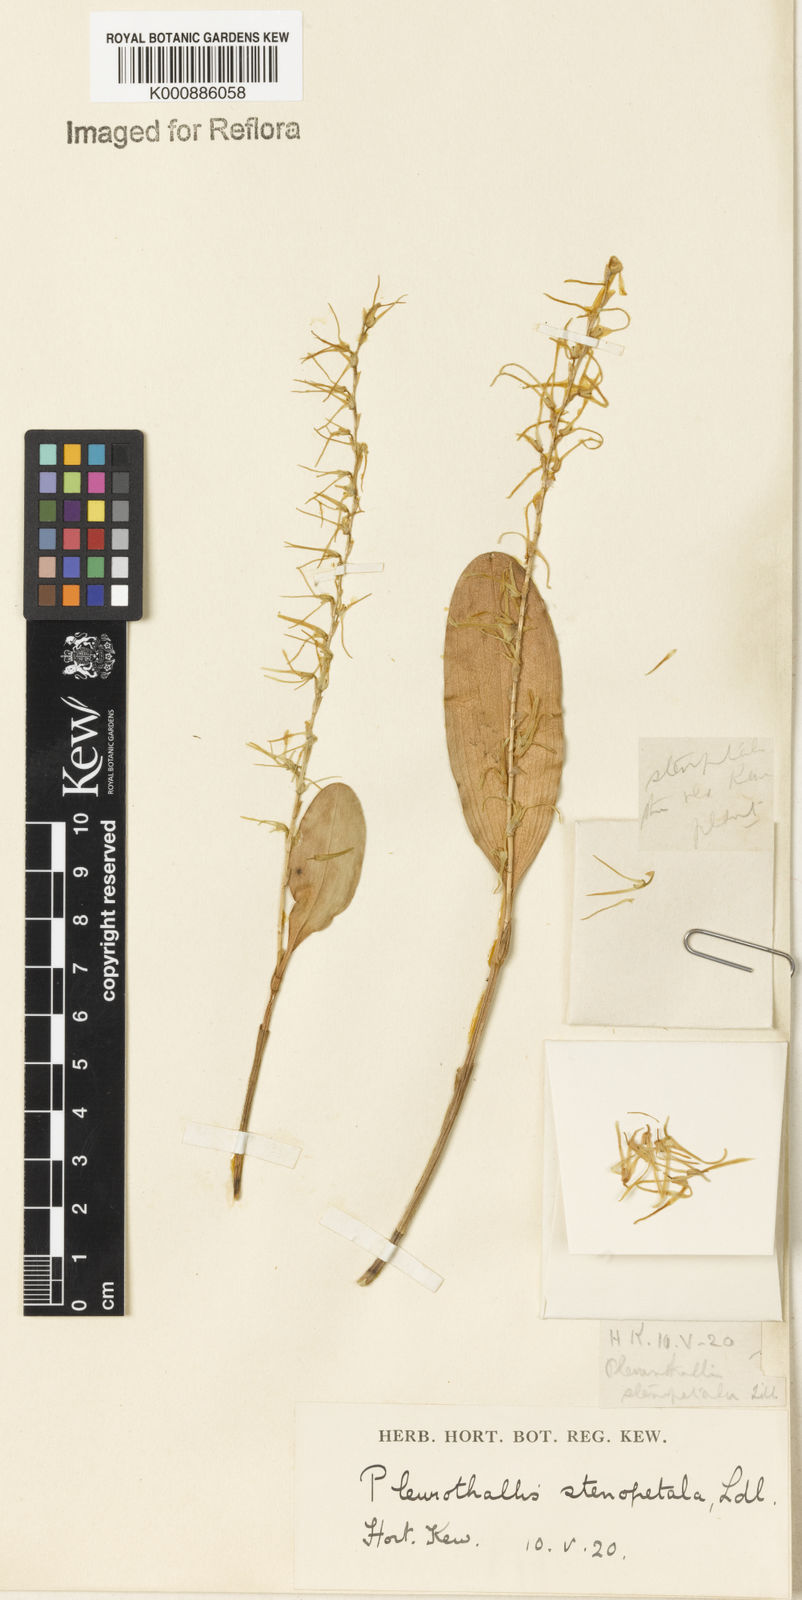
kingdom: Plantae
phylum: Tracheophyta
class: Liliopsida
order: Asparagales
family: Orchidaceae
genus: Stelis
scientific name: Stelis sclerophylla
